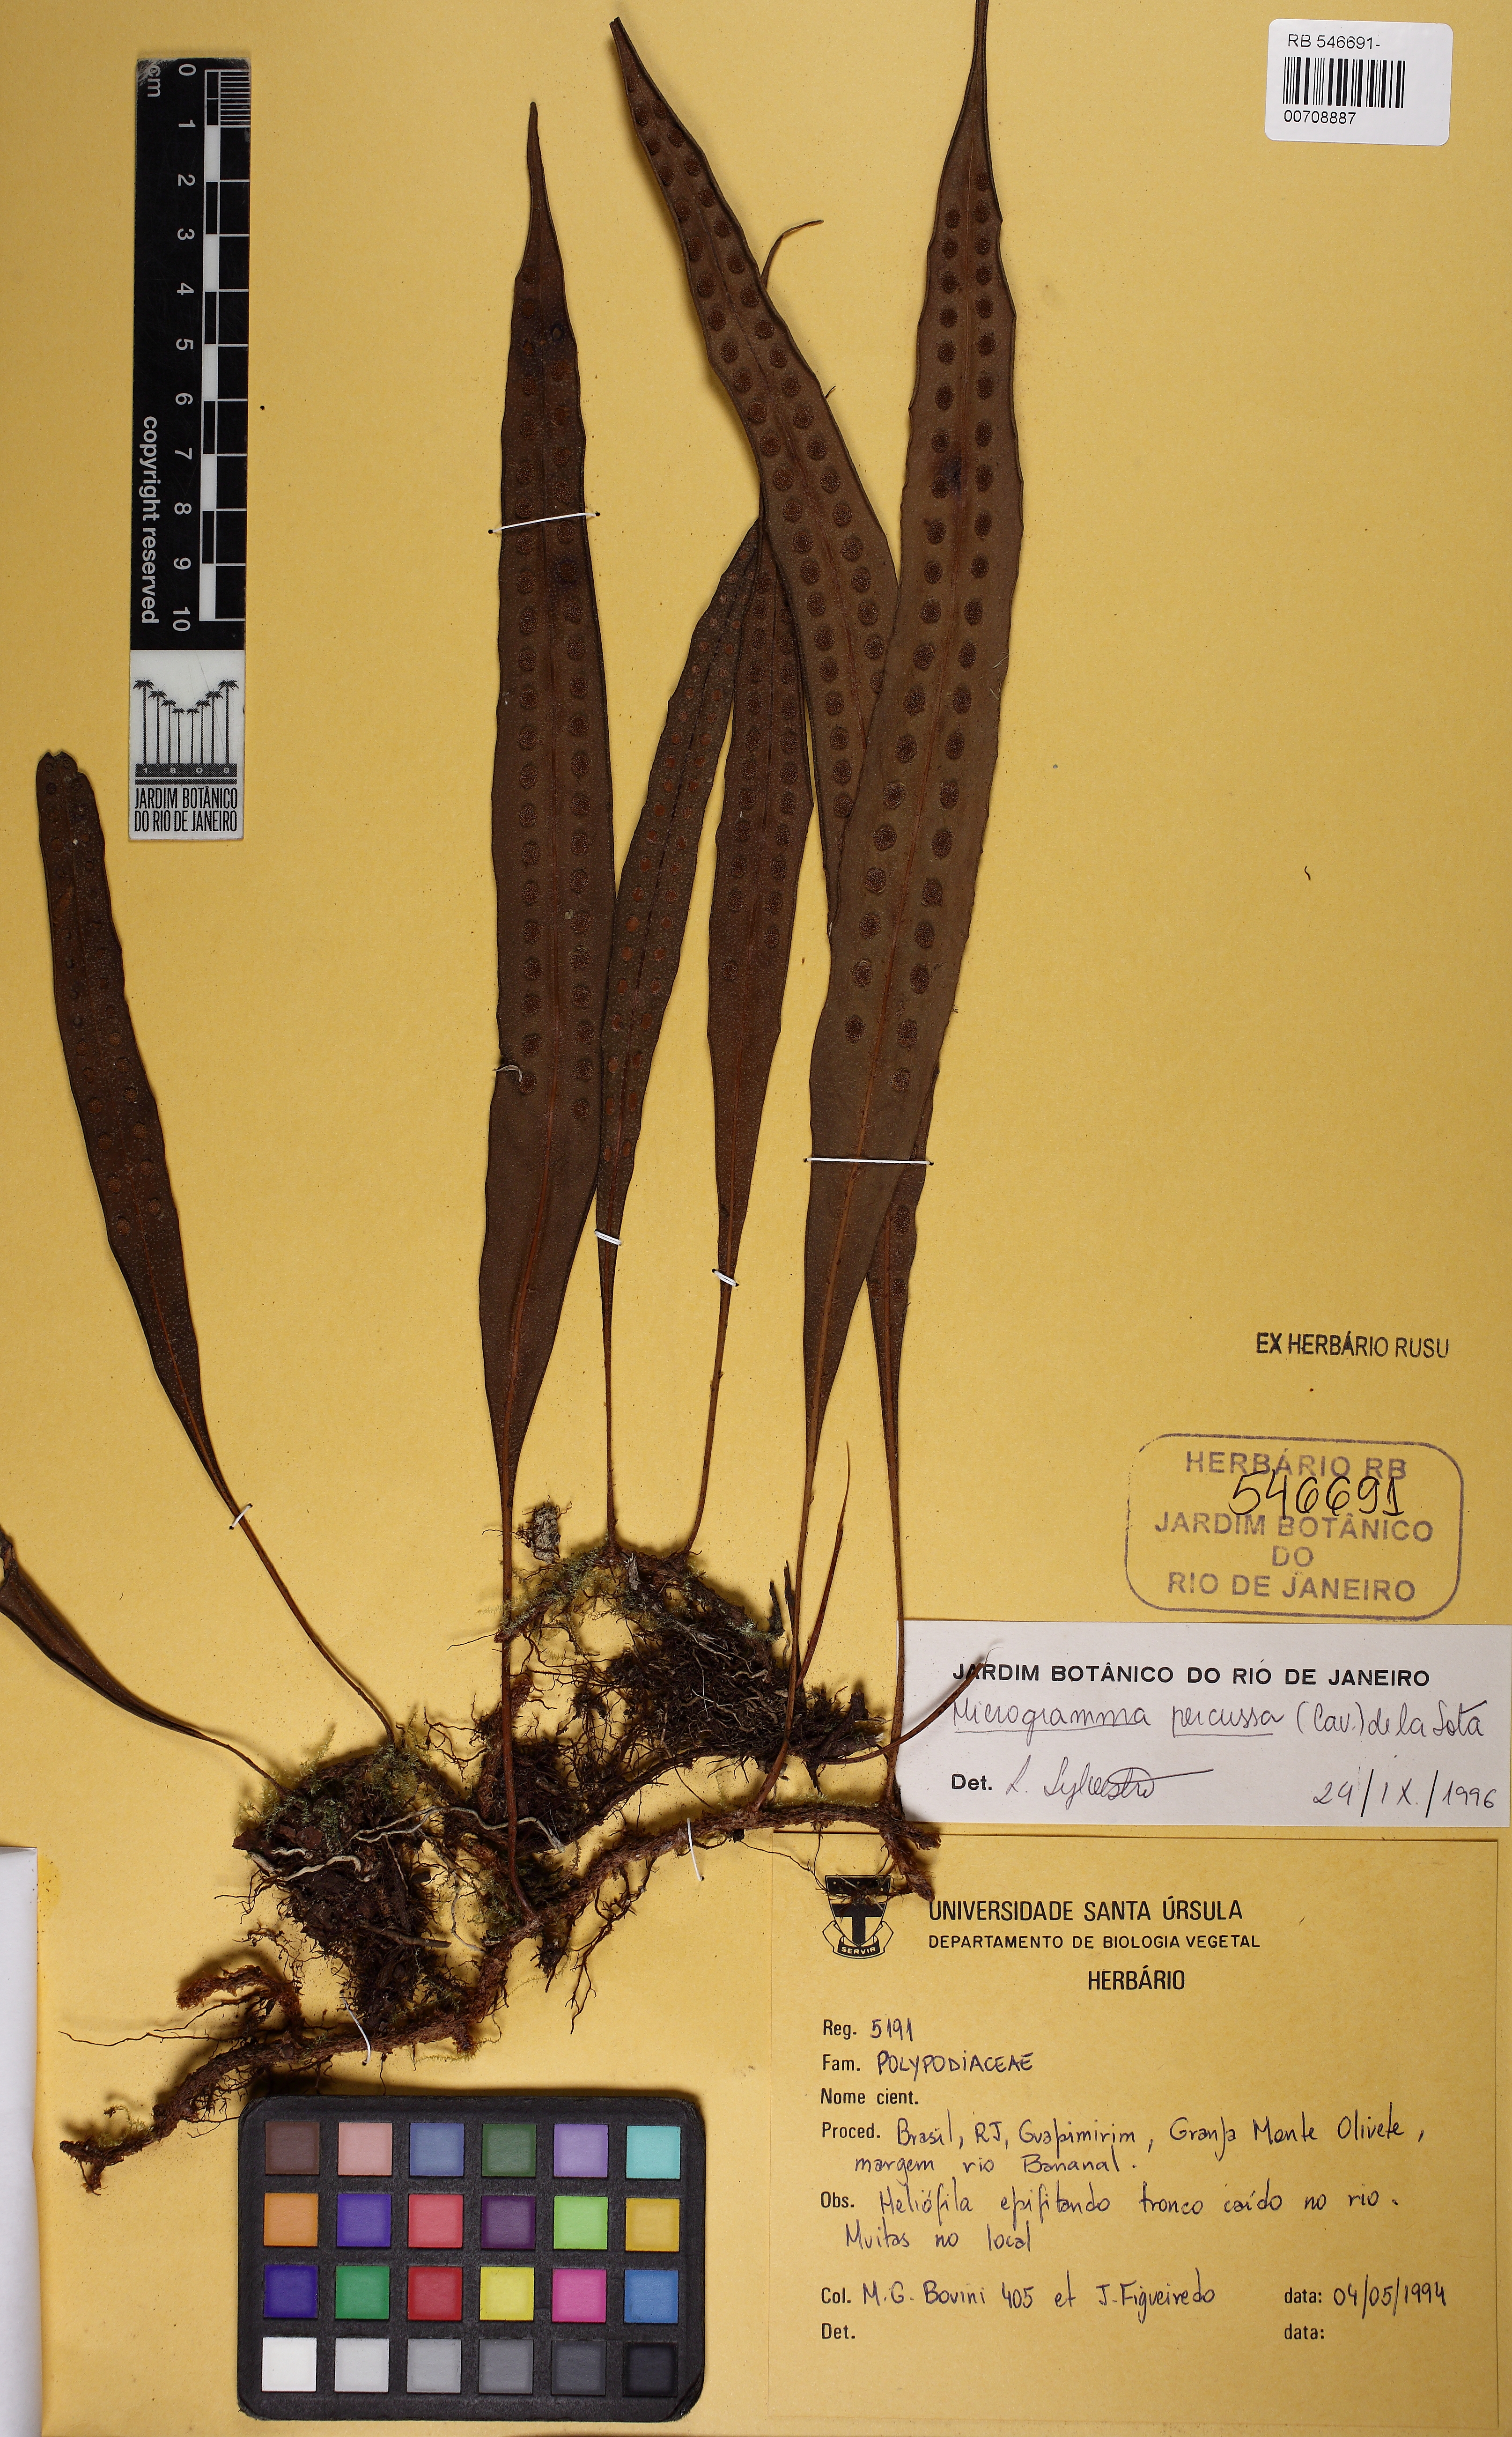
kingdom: Plantae
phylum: Tracheophyta
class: Polypodiopsida
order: Polypodiales
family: Polypodiaceae
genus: Microgramma
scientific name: Microgramma percussa
